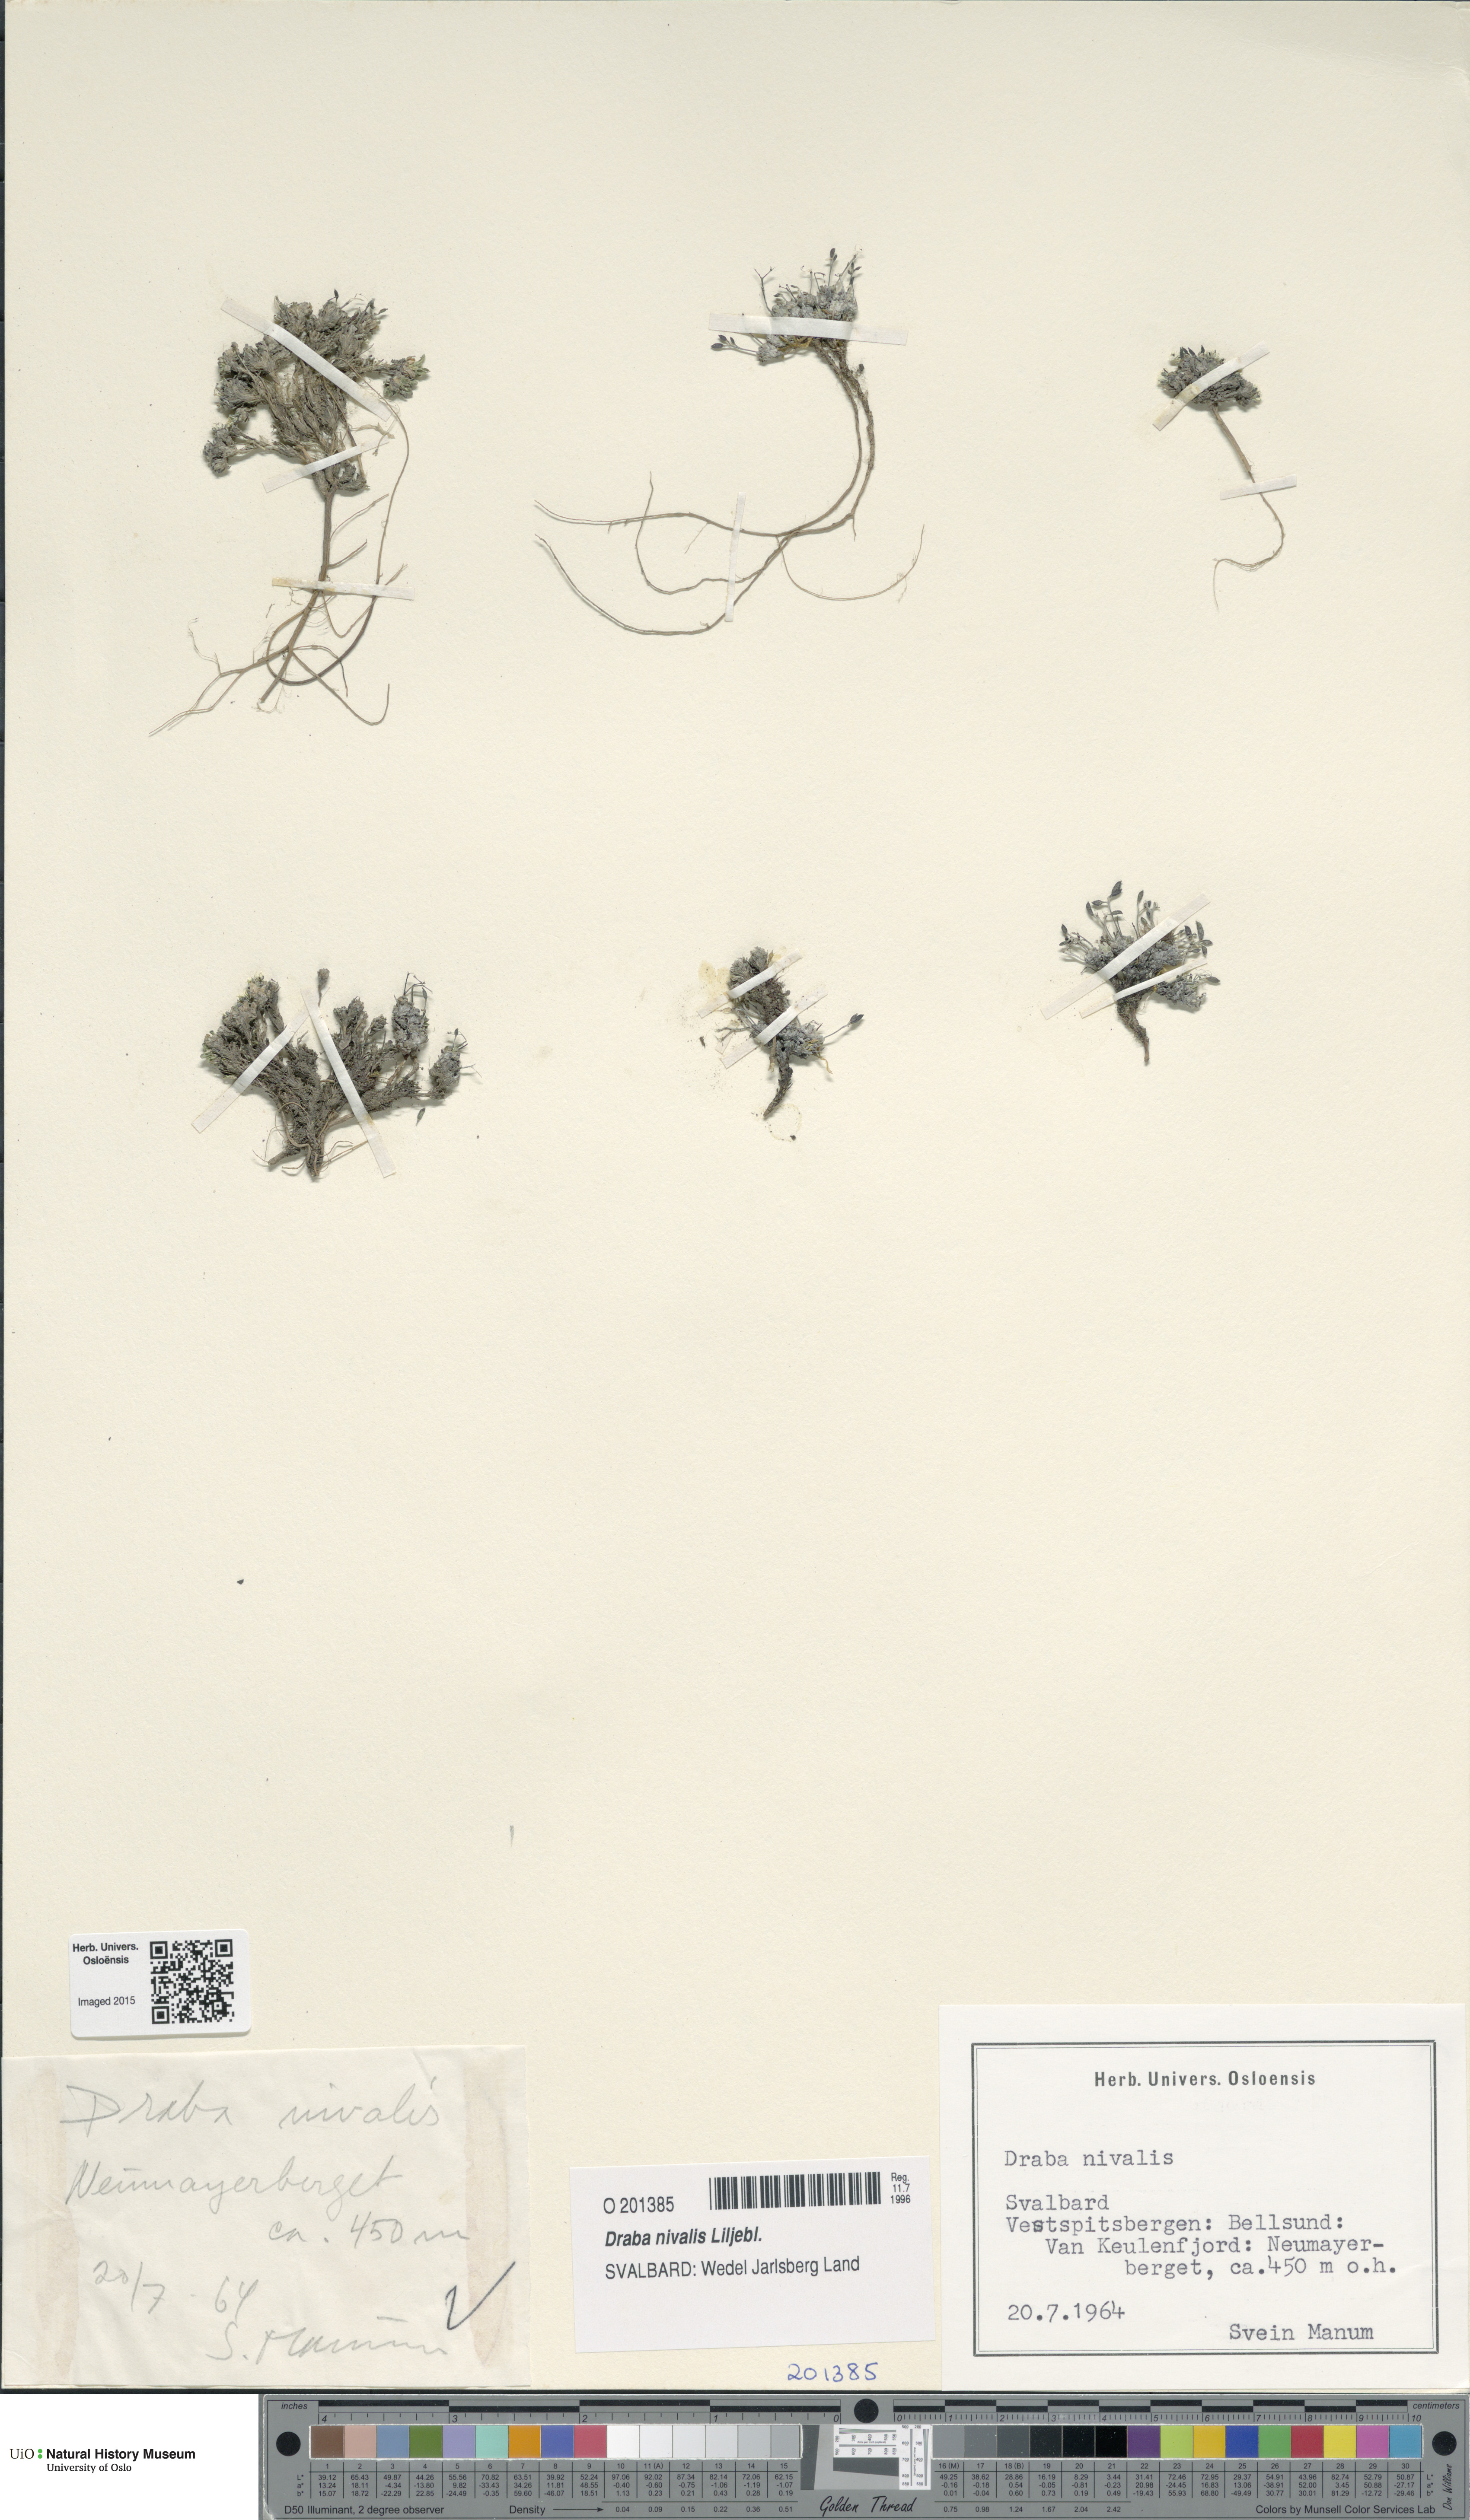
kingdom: Plantae
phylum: Tracheophyta
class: Magnoliopsida
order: Brassicales
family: Brassicaceae
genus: Draba
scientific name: Draba nivalis
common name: Snow draba
